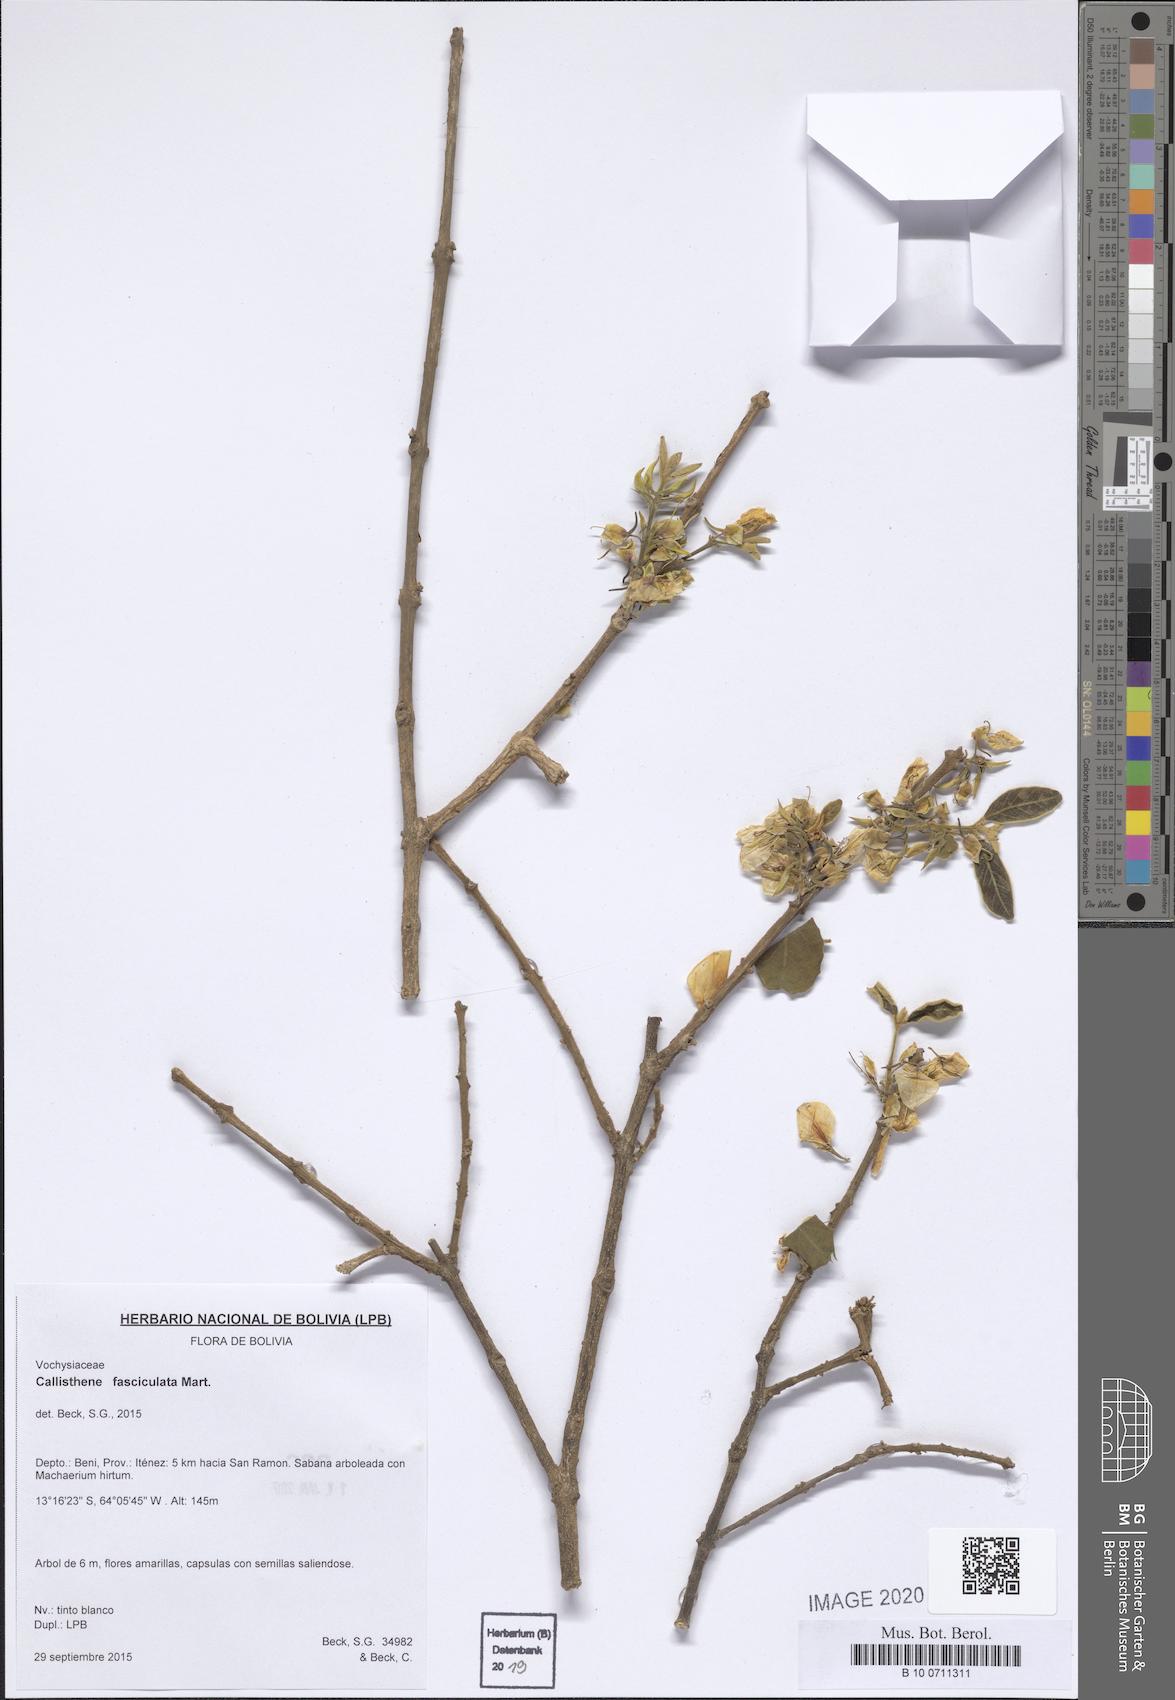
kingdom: Plantae
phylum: Tracheophyta
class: Magnoliopsida
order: Myrtales
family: Vochysiaceae
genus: Callisthene
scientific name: Callisthene fasciculata
